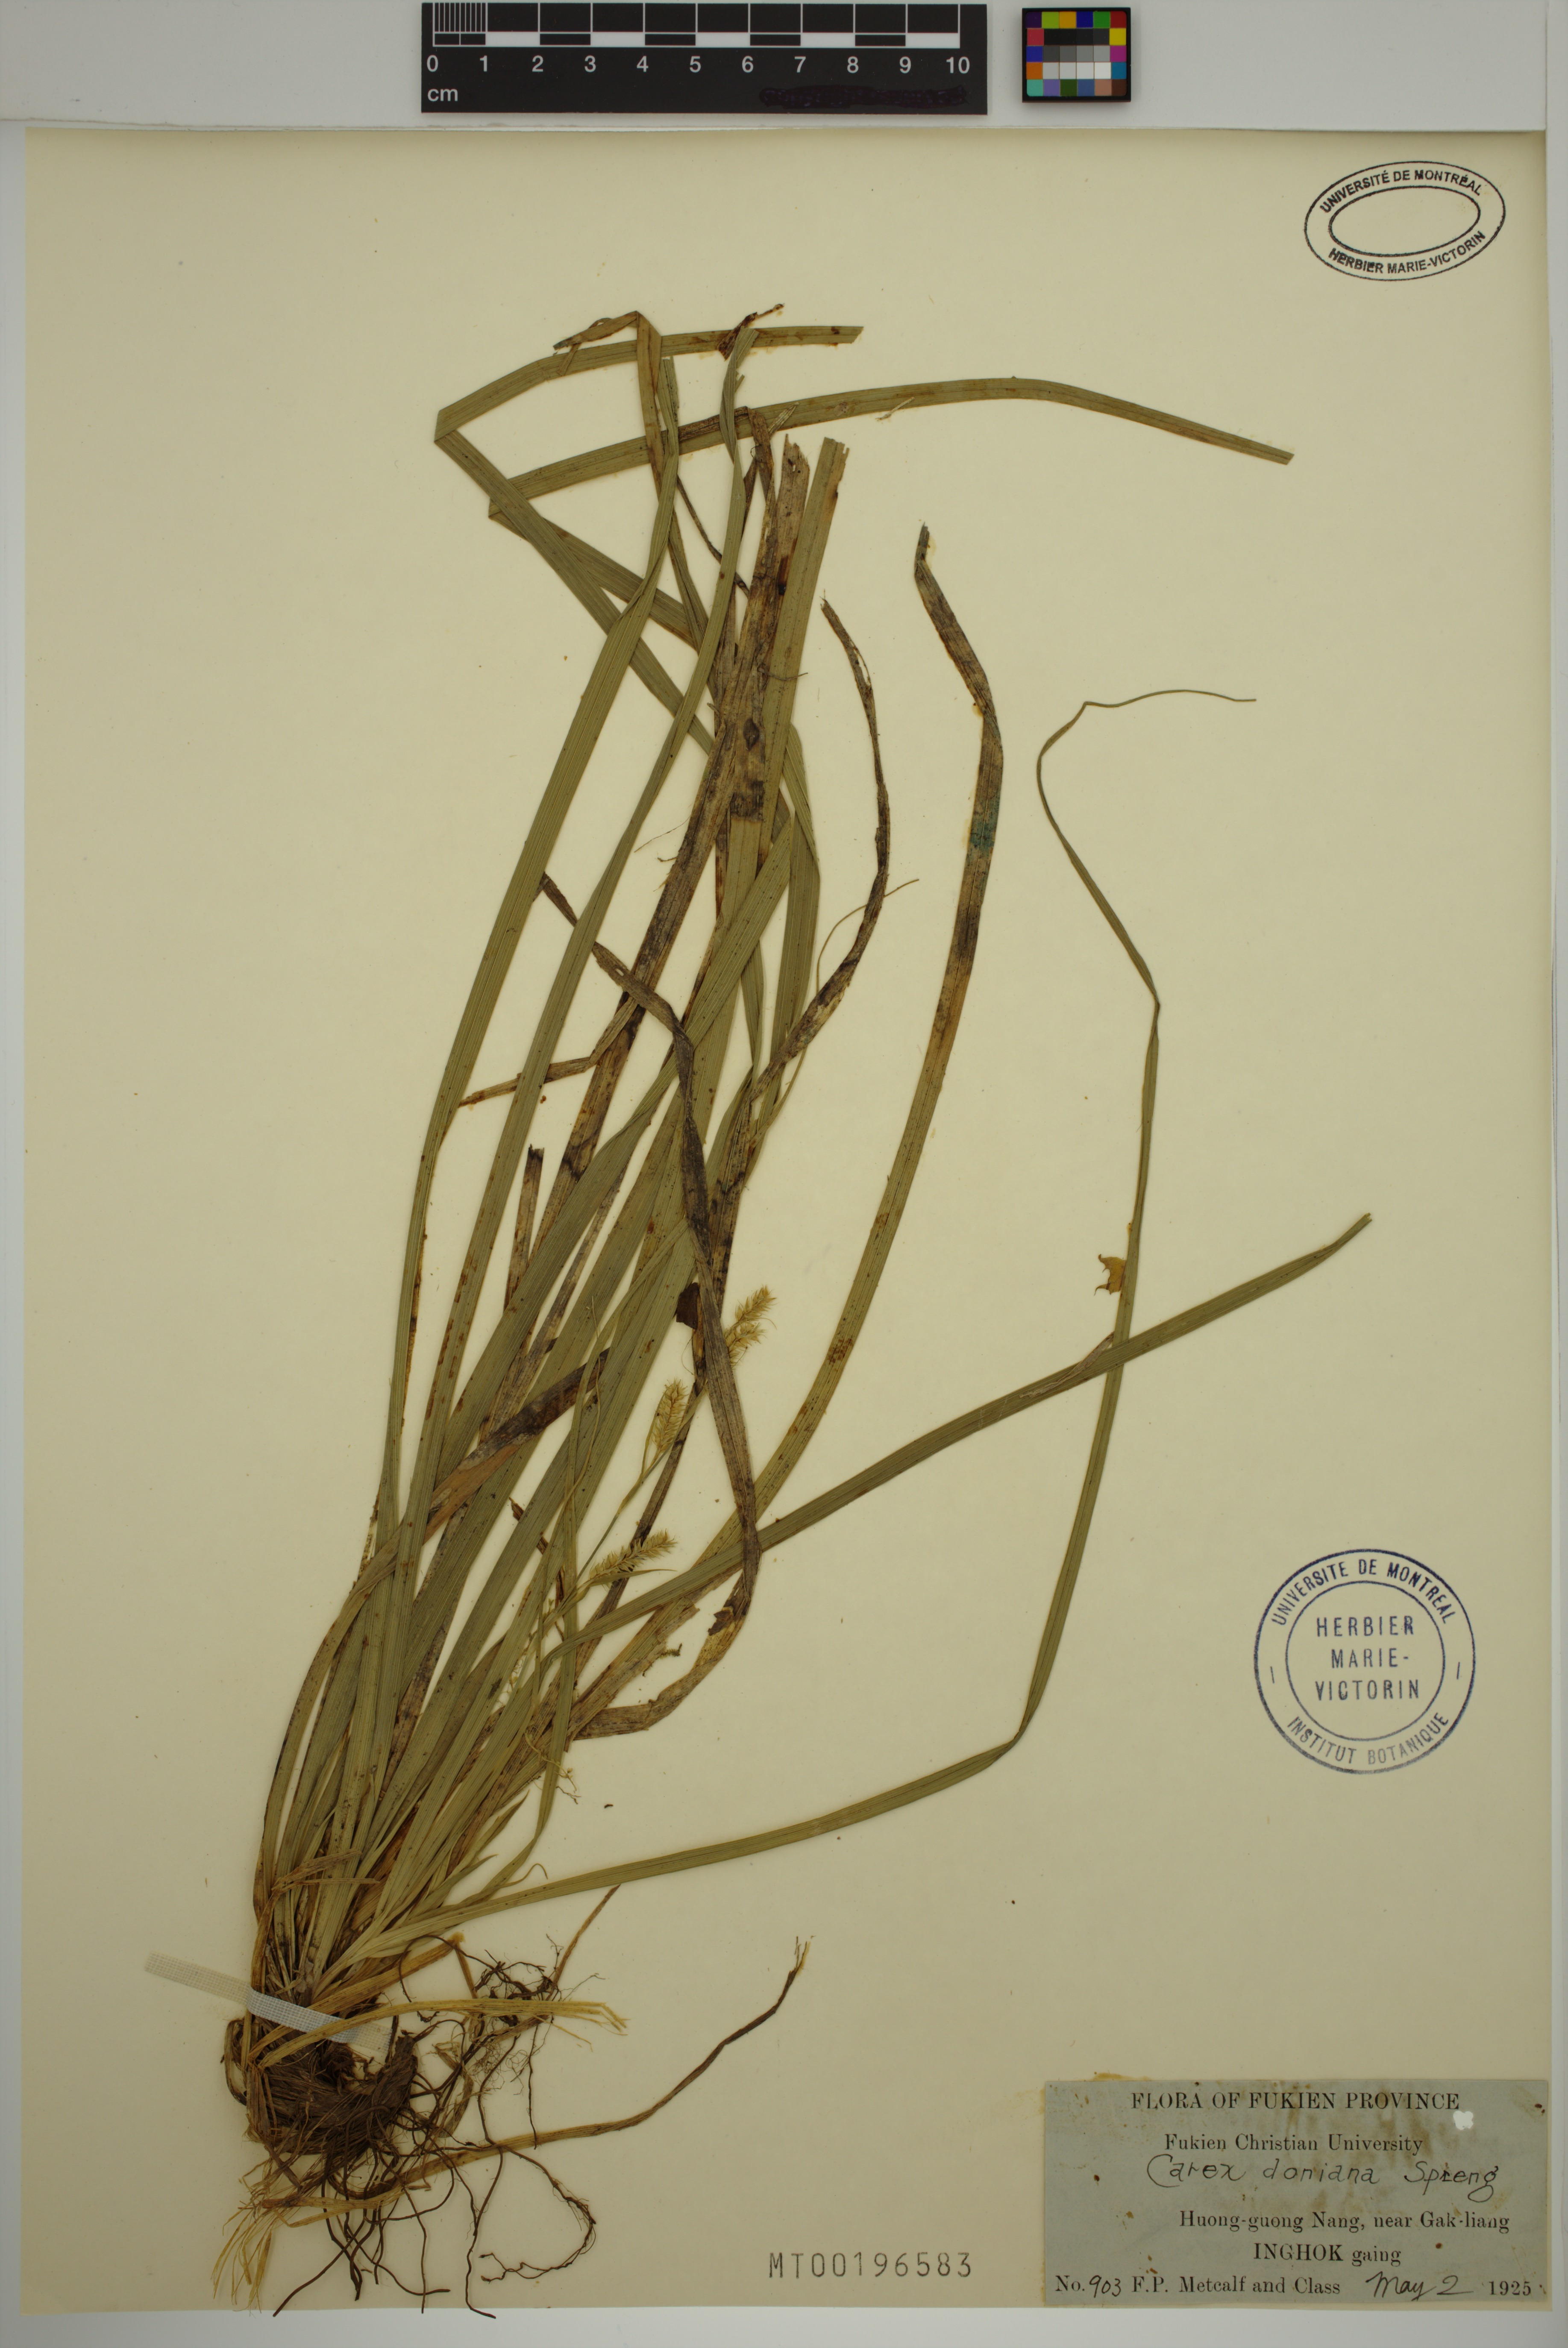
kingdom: Plantae
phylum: Tracheophyta
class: Liliopsida
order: Poales
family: Cyperaceae
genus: Carex
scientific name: Carex doniana
